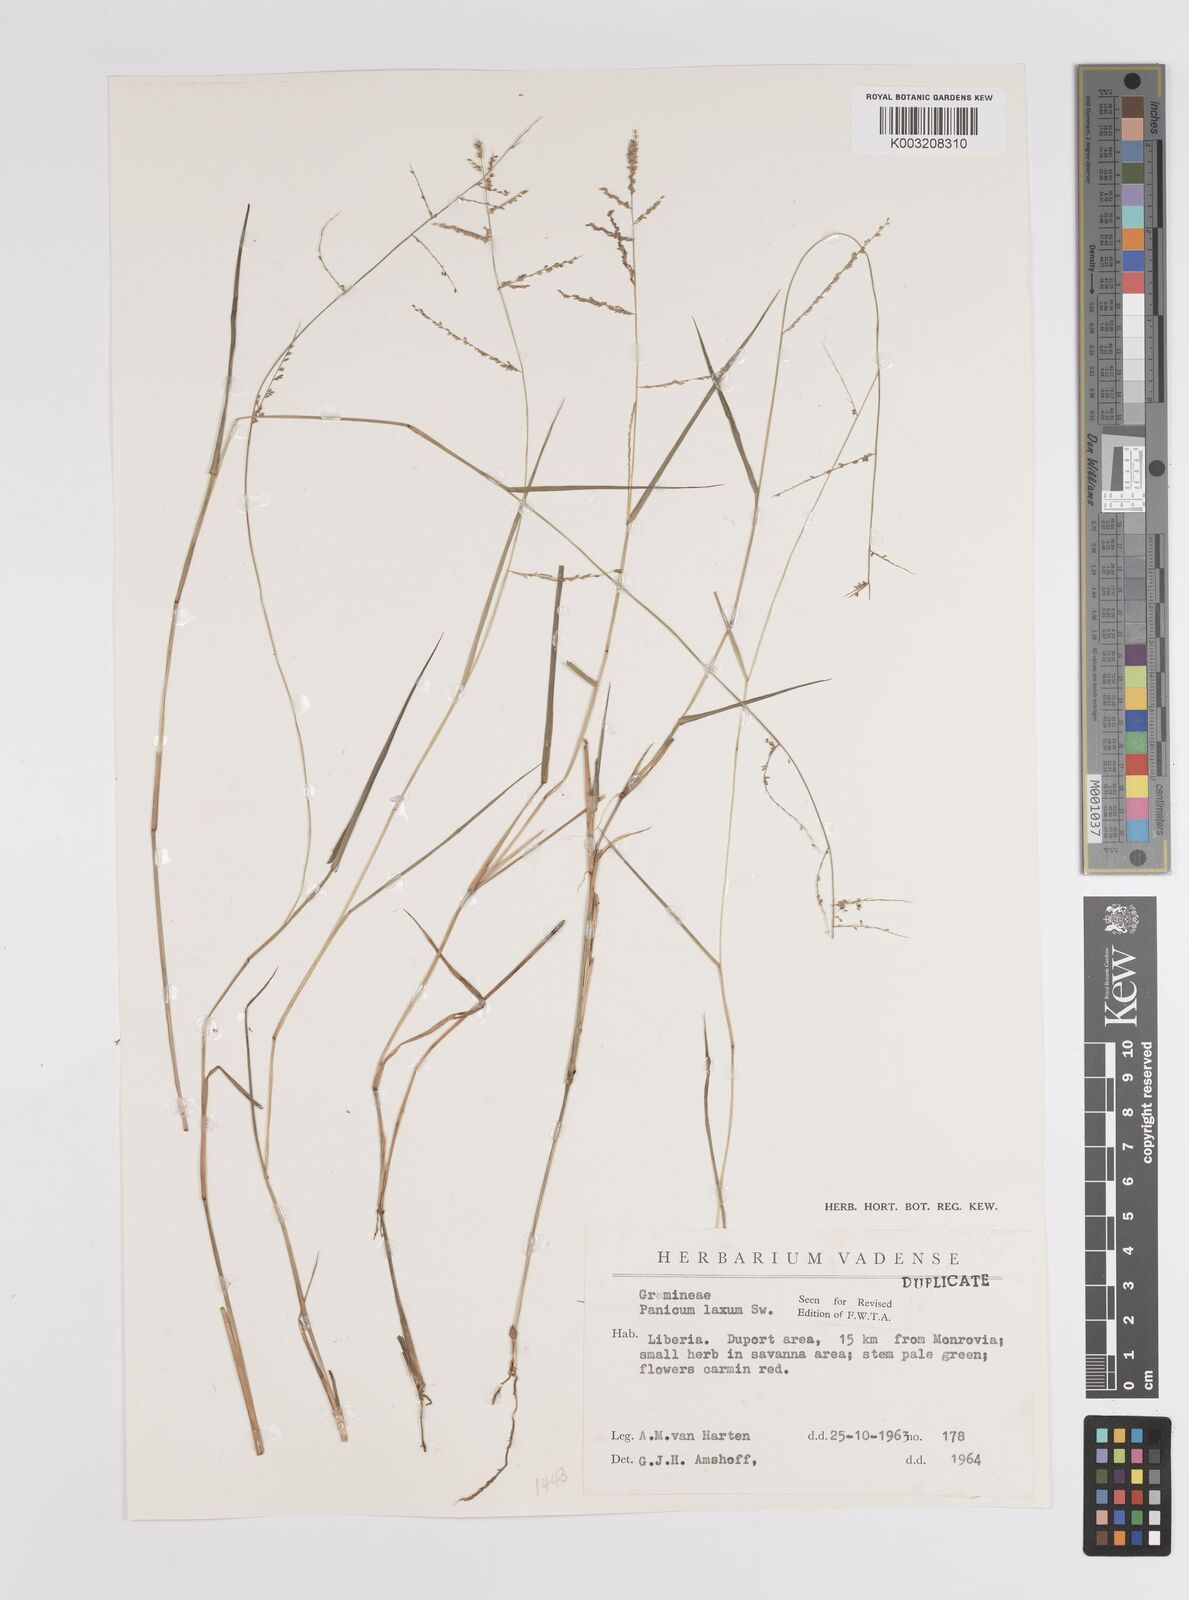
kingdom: Plantae
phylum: Tracheophyta
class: Liliopsida
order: Poales
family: Poaceae
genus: Steinchisma
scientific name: Steinchisma laxum
